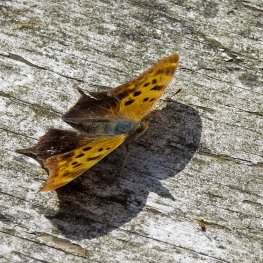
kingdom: Animalia
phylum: Arthropoda
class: Insecta
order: Lepidoptera
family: Nymphalidae
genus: Polygonia
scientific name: Polygonia interrogationis
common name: Question Mark
